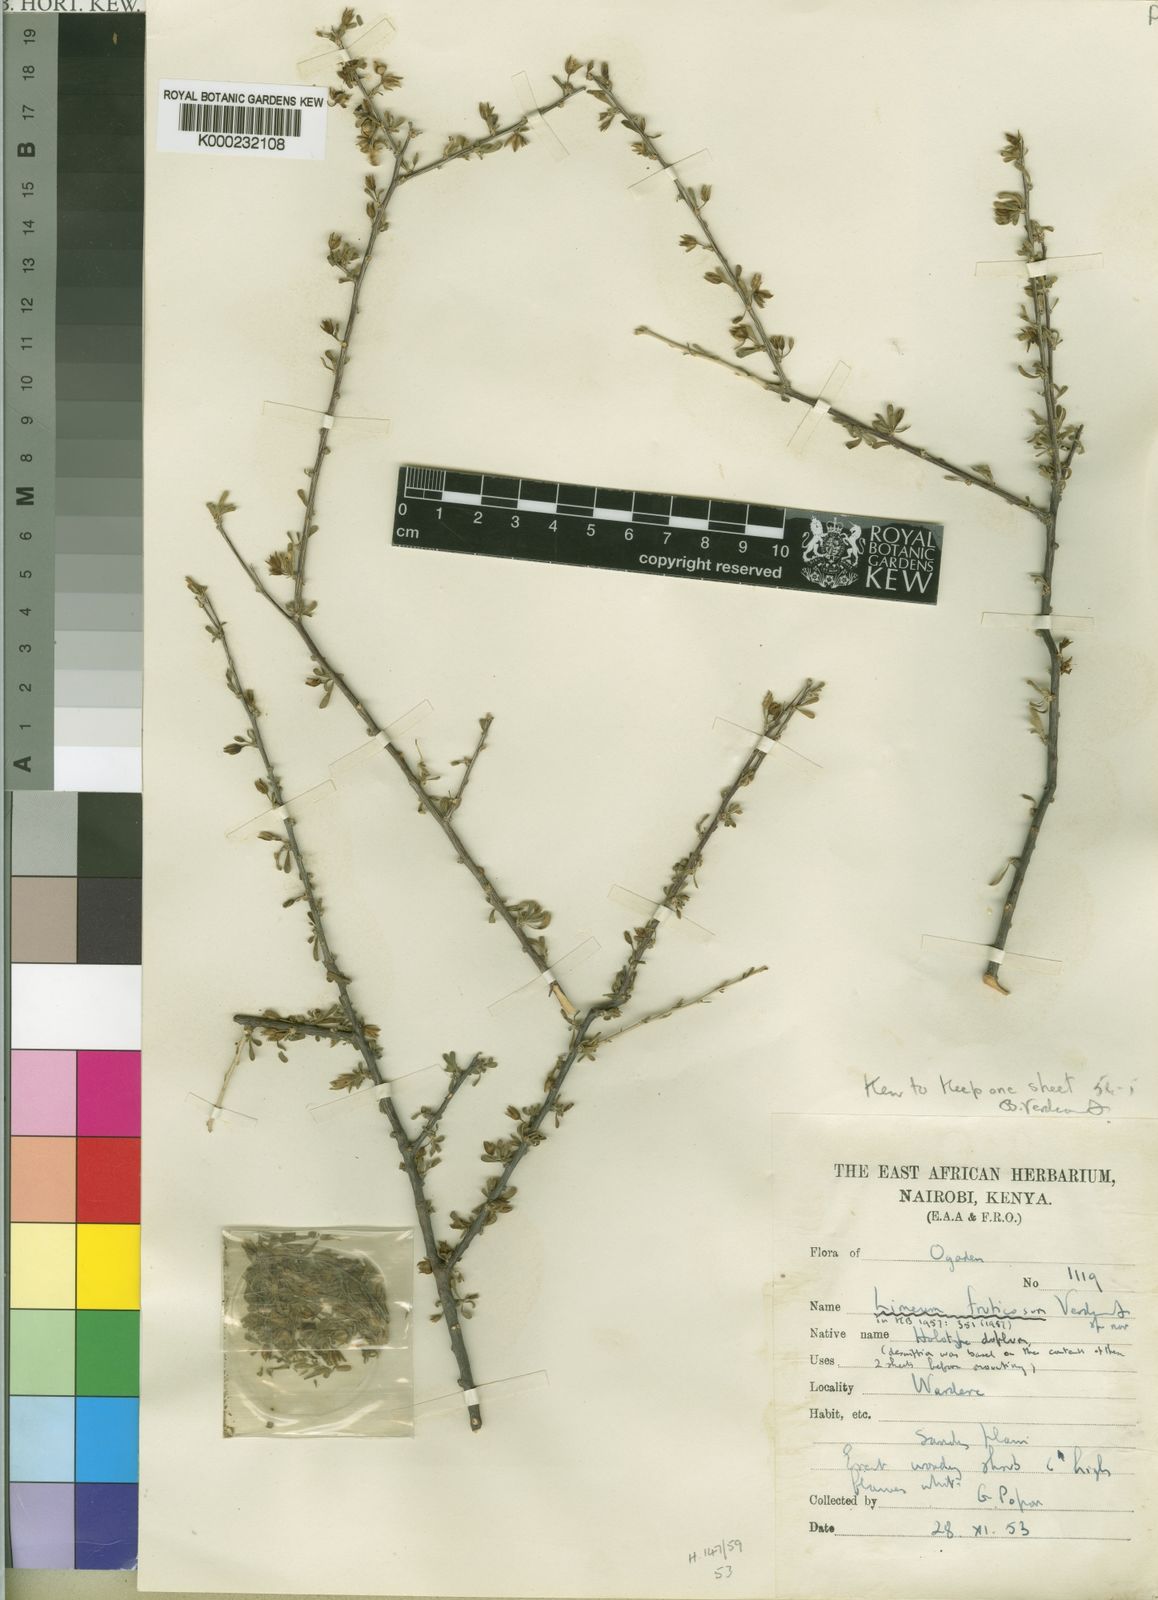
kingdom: Plantae
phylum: Tracheophyta
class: Magnoliopsida
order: Caryophyllales
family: Limeaceae
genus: Limeum
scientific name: Limeum fruticosum
